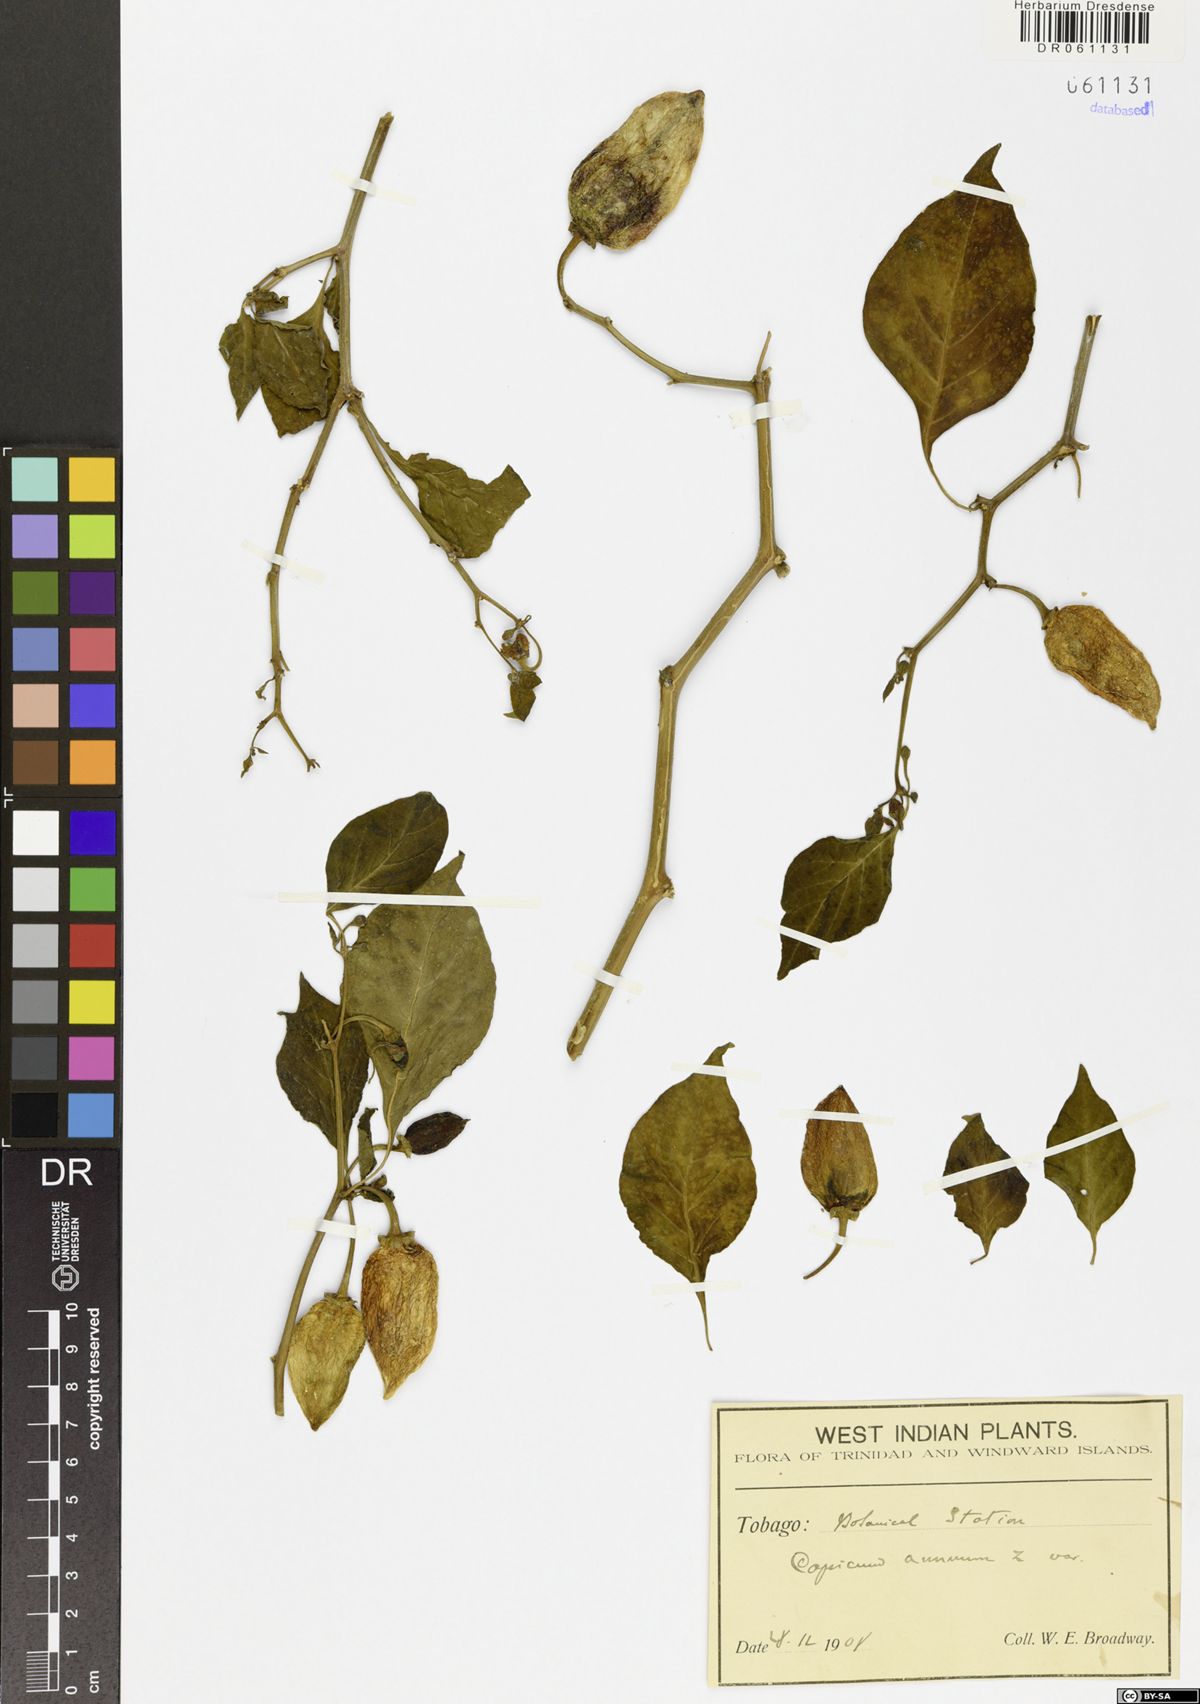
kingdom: Plantae
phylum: Tracheophyta
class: Magnoliopsida
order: Solanales
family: Solanaceae
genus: Capsicum
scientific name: Capsicum annuum
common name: Sweet pepper
